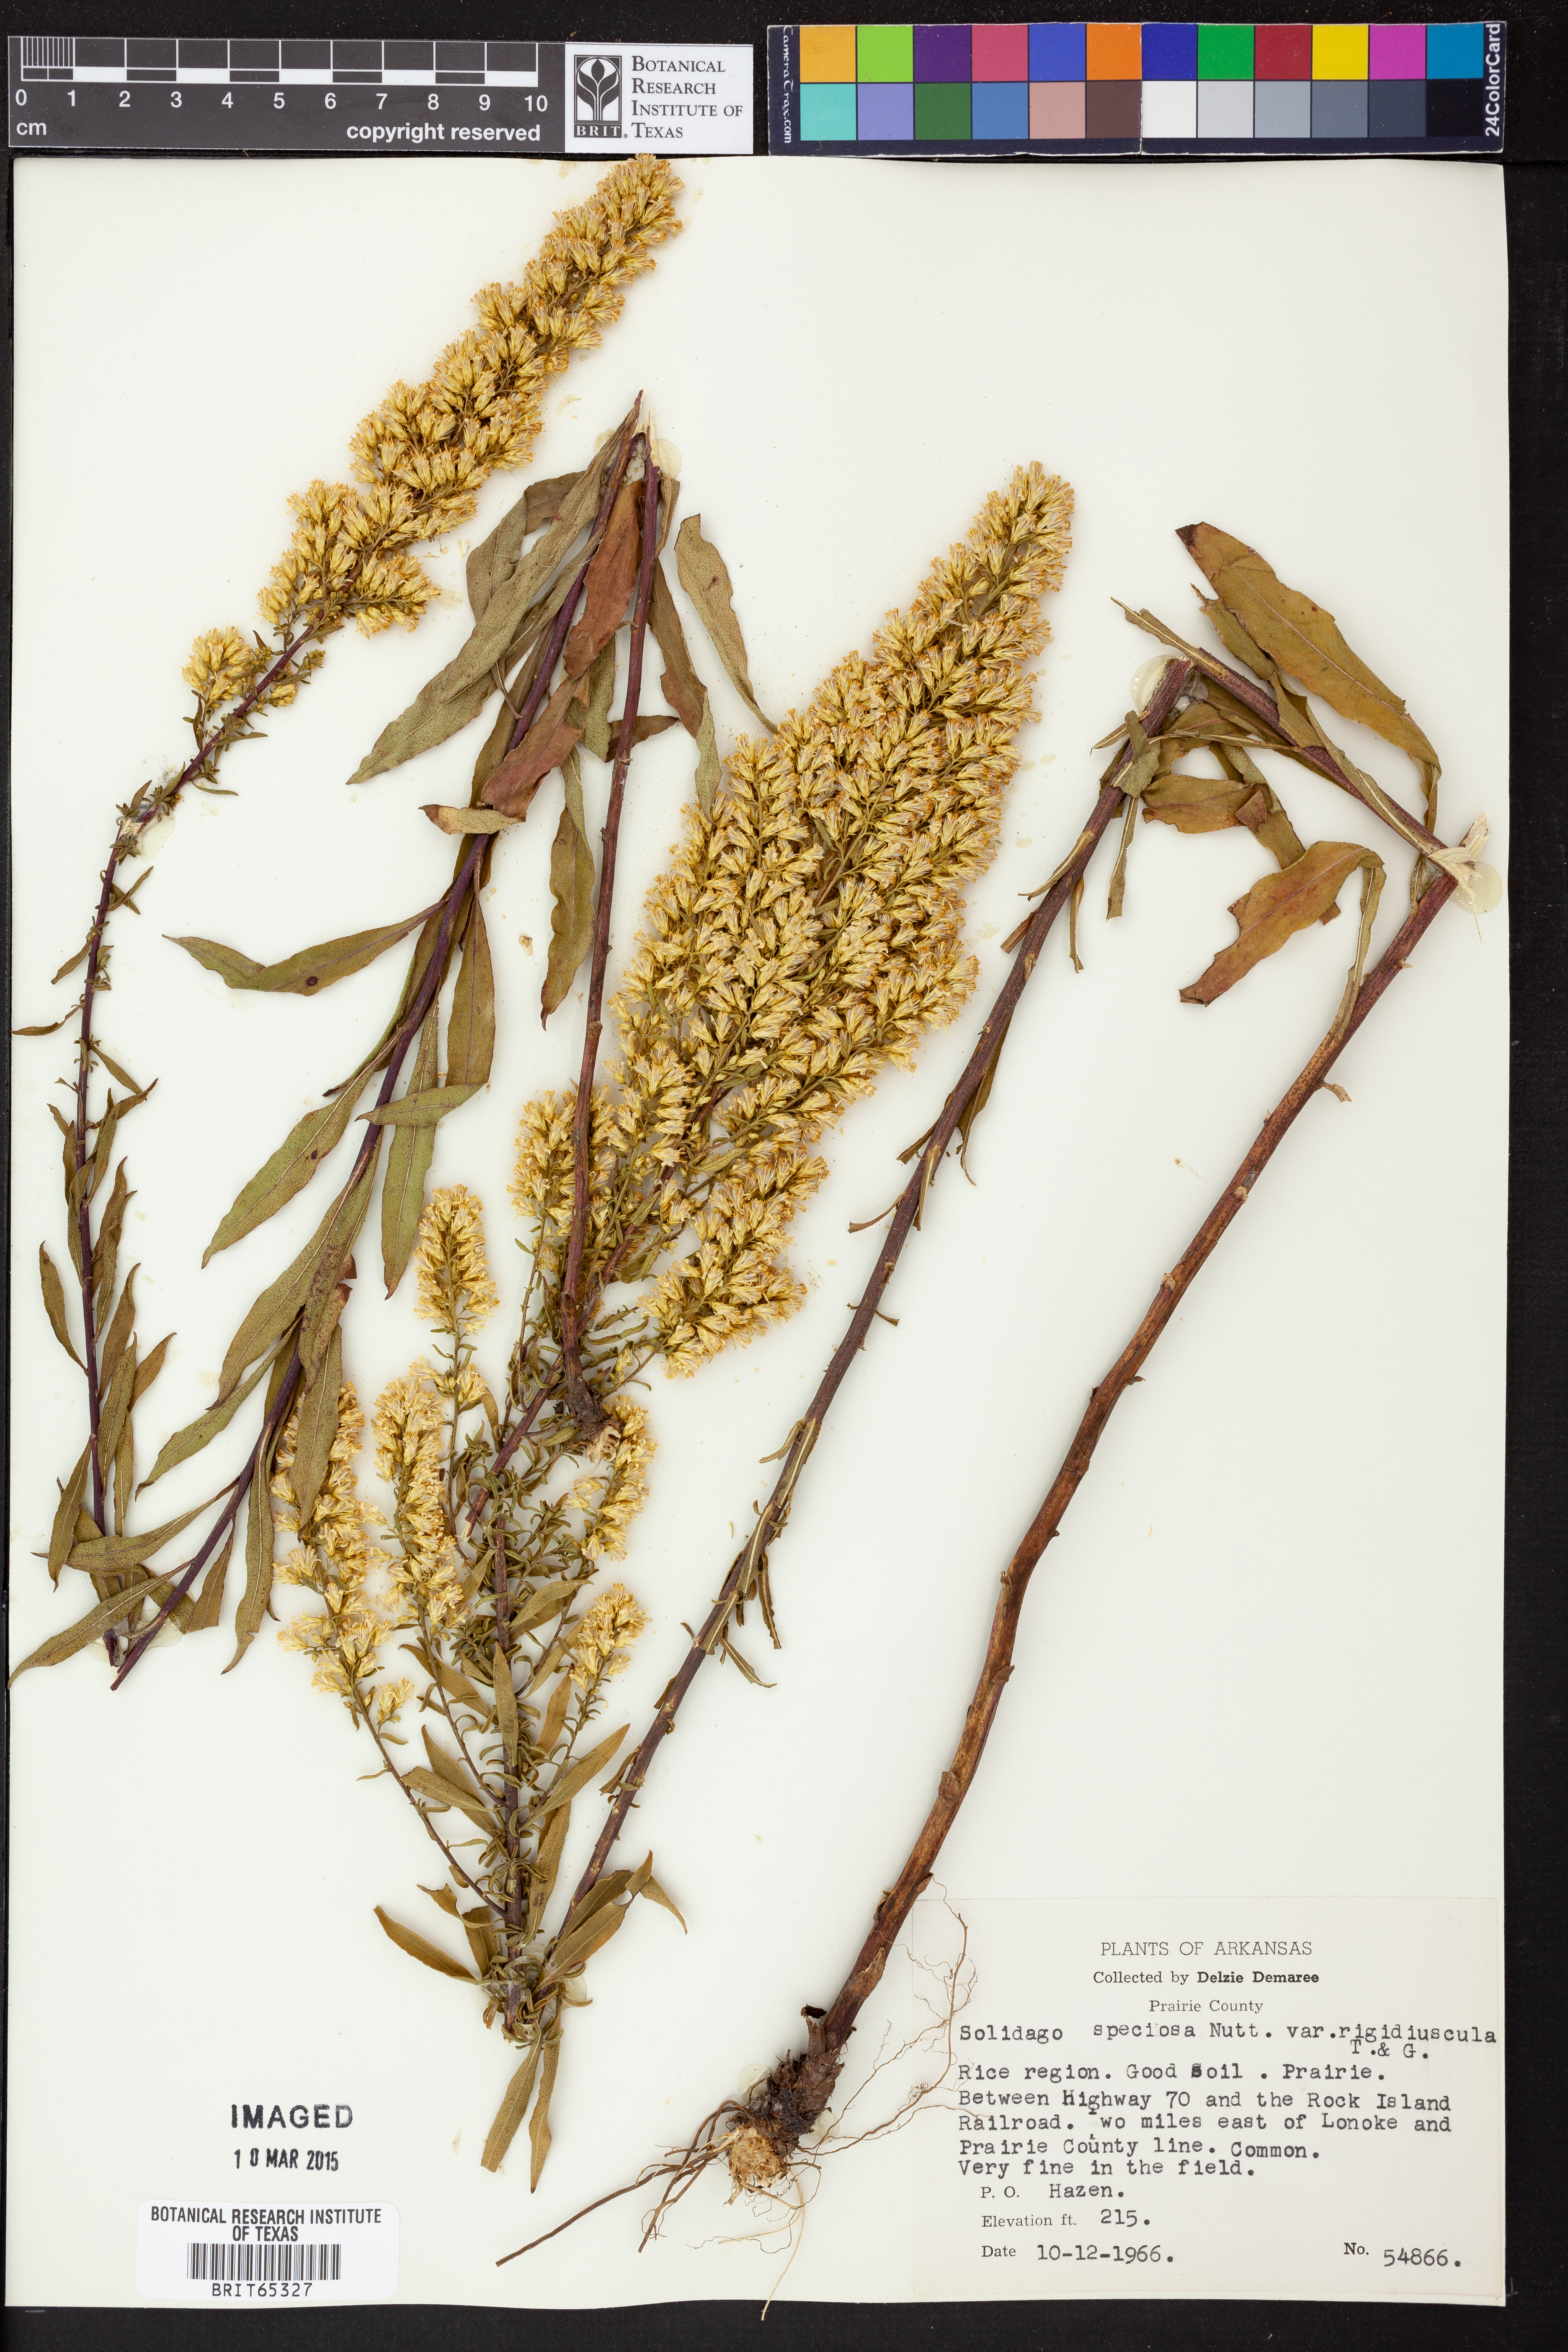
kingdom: Plantae
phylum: Tracheophyta
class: Magnoliopsida
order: Asterales
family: Asteraceae
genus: Solidago
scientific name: Solidago speciosa
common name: Showy goldenrod
